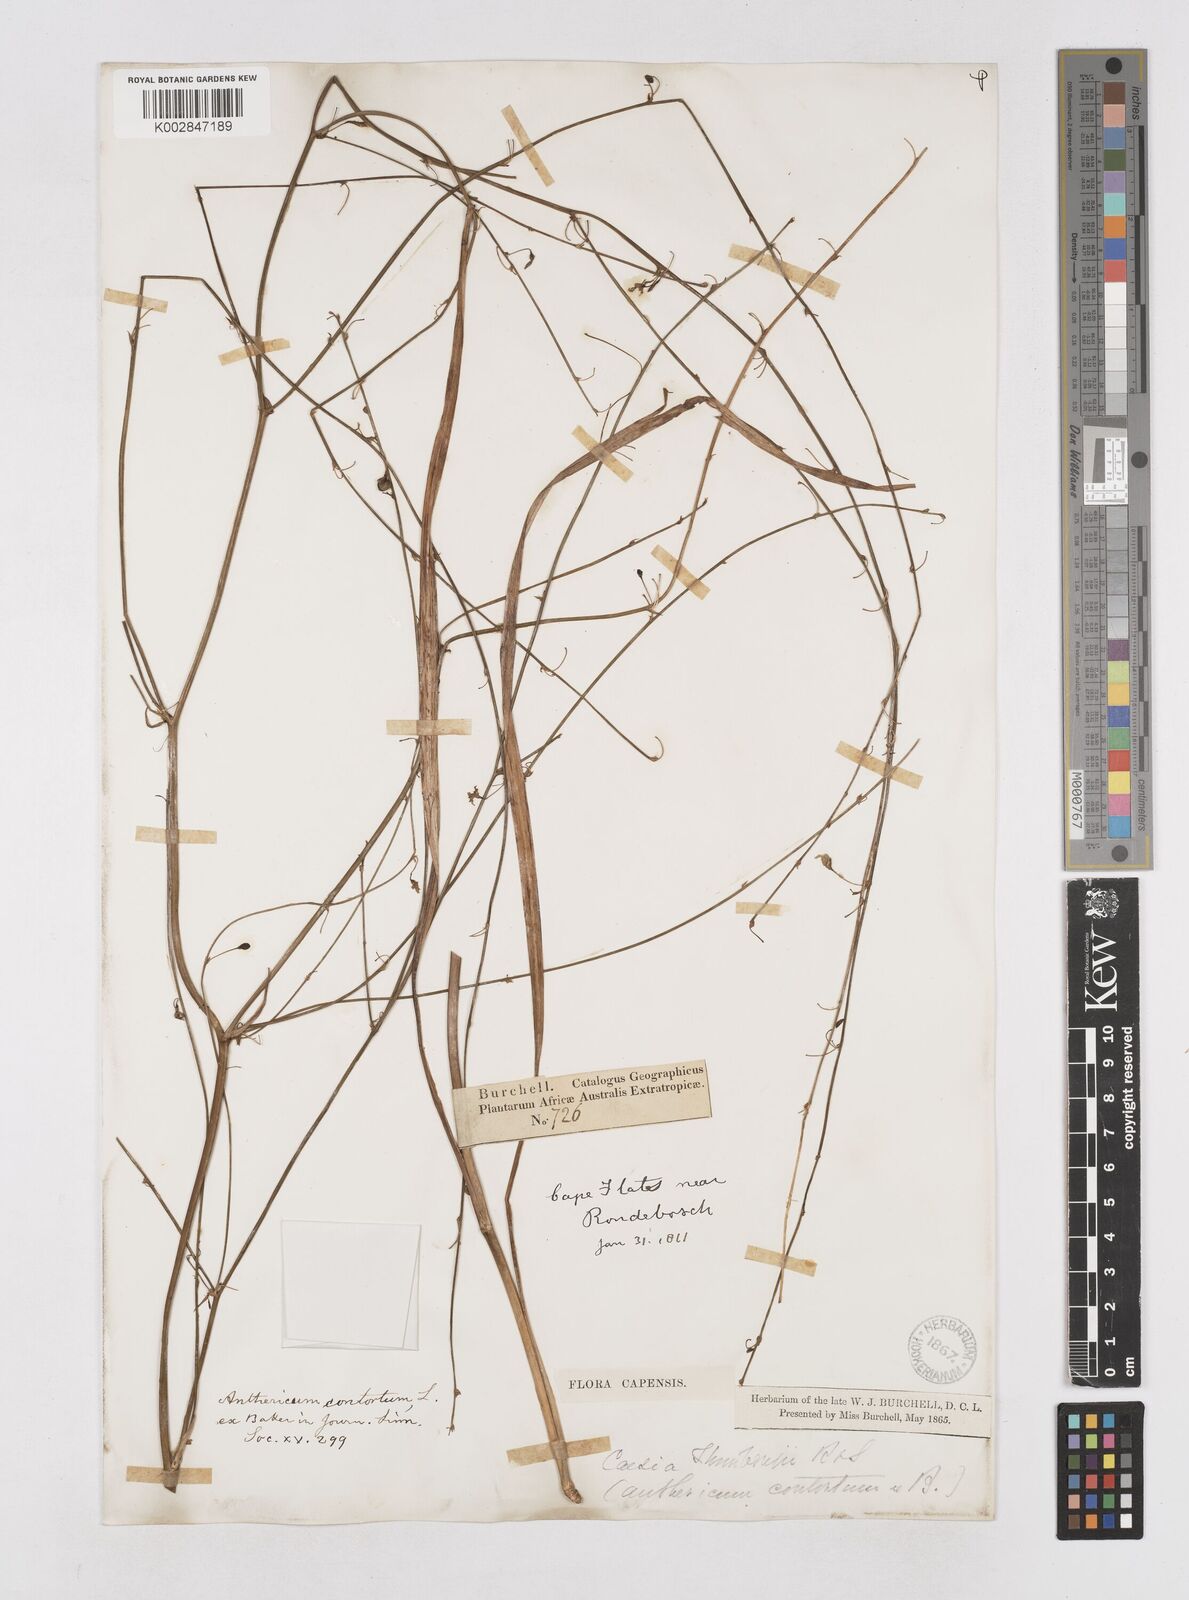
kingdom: Plantae
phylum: Tracheophyta
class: Liliopsida
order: Asparagales
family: Asphodelaceae
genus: Caesia
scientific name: Caesia contorta
